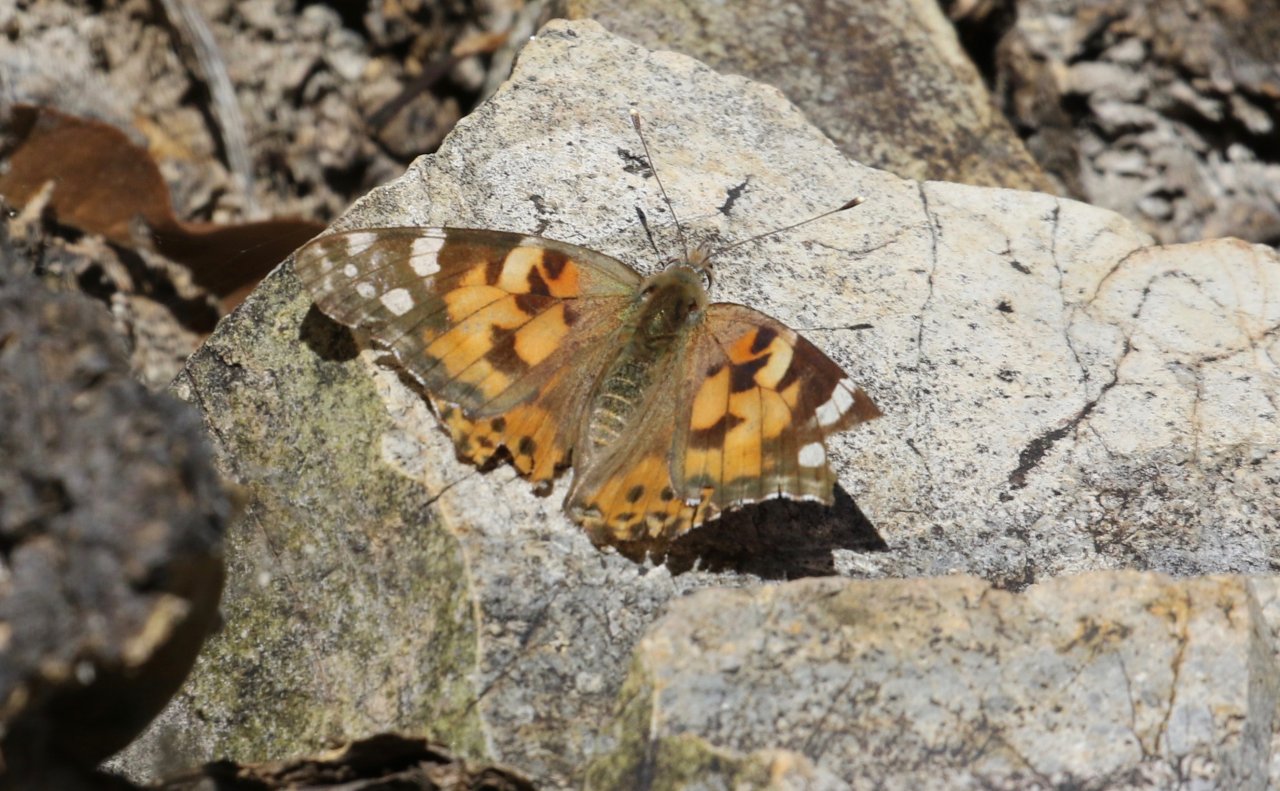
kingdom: Animalia
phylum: Arthropoda
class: Insecta
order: Lepidoptera
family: Nymphalidae
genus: Vanessa
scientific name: Vanessa cardui
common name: Painted Lady
